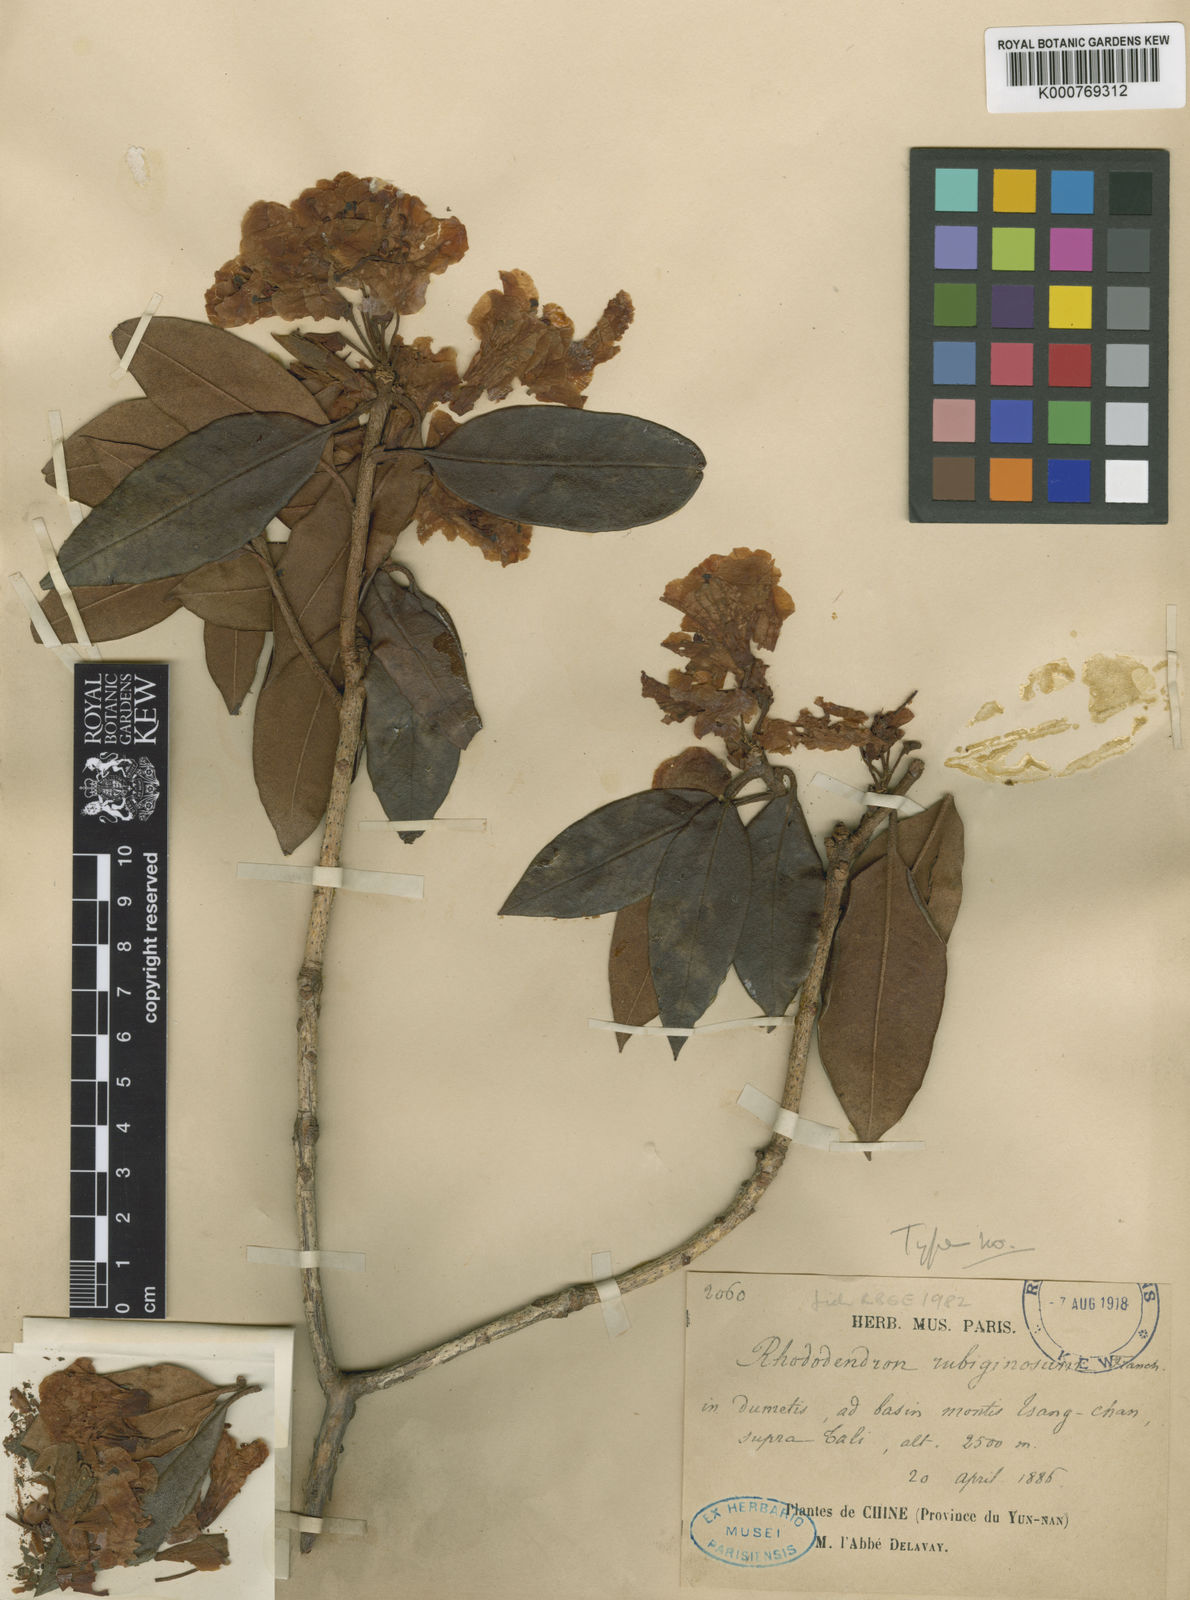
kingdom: Plantae
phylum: Tracheophyta
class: Magnoliopsida
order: Ericales
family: Ericaceae
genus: Rhododendron
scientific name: Rhododendron rubiginosum
